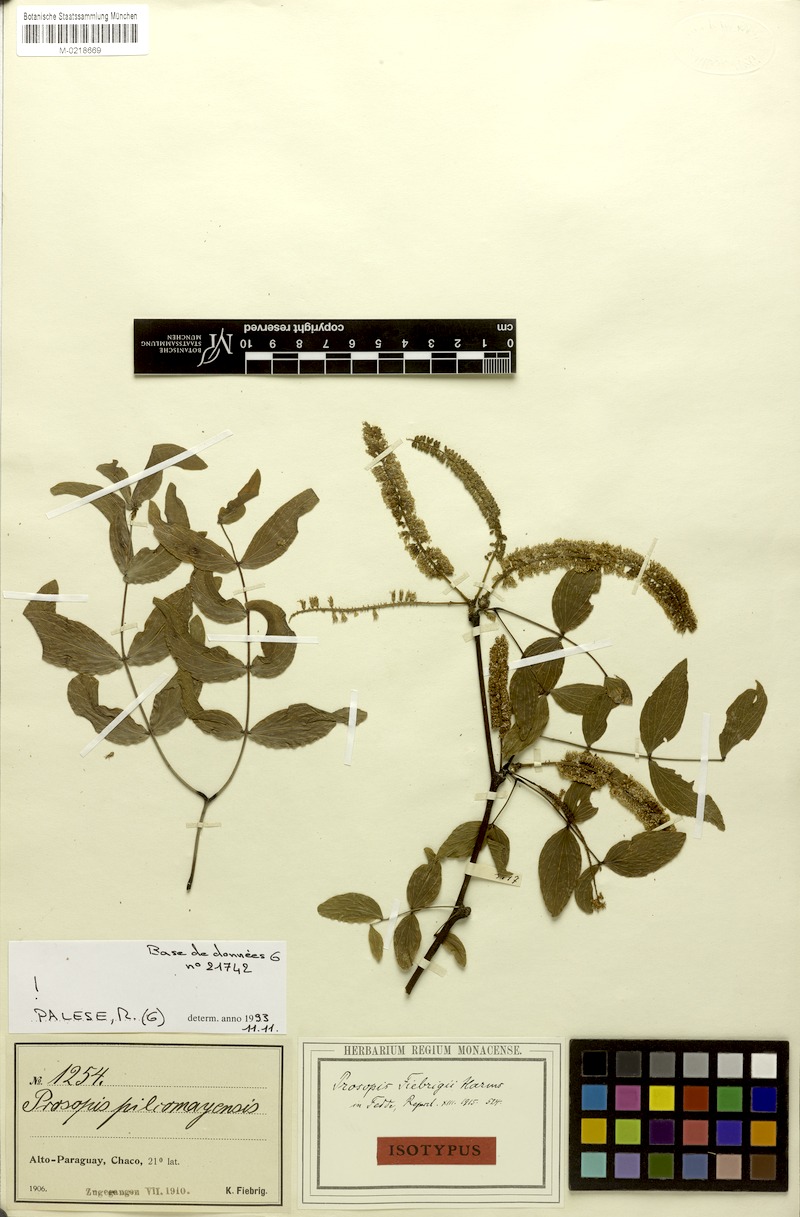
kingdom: Plantae
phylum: Tracheophyta
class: Magnoliopsida
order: Fabales
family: Fabaceae
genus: Prosopis
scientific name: Prosopis fiebrigii
